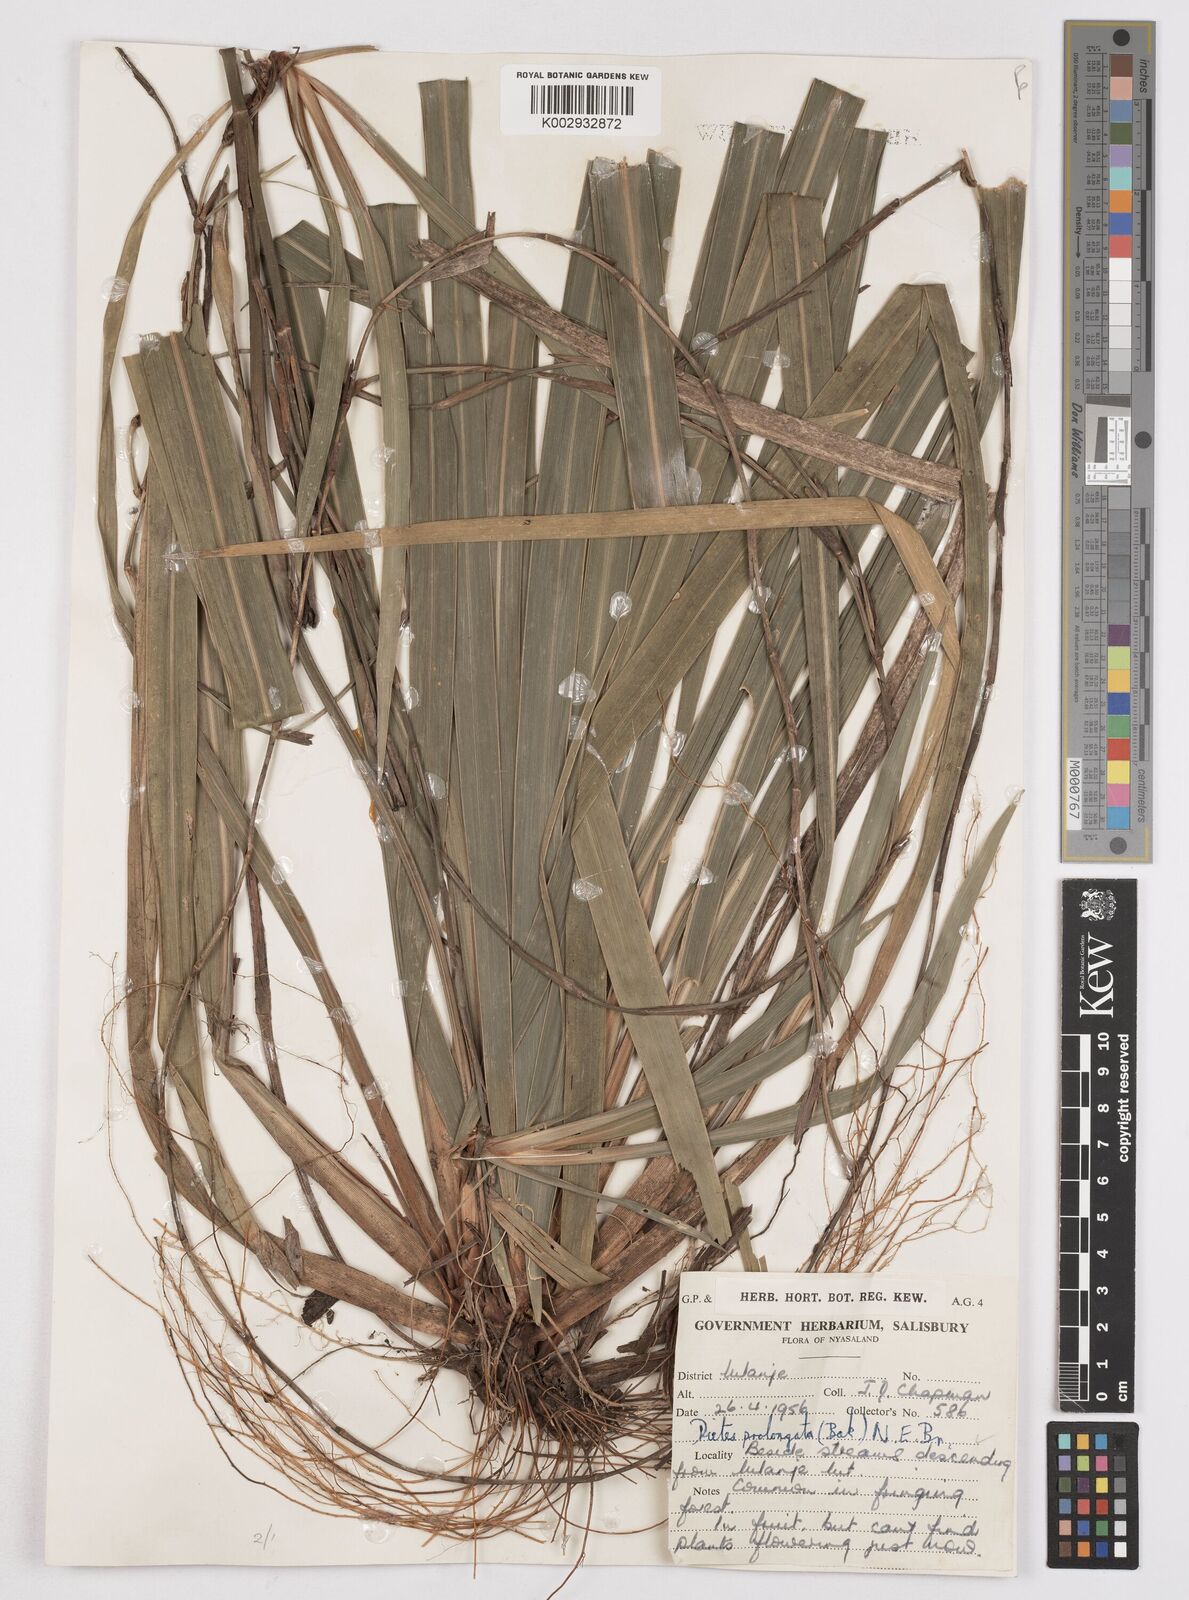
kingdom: Plantae
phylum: Tracheophyta
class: Liliopsida
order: Asparagales
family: Iridaceae
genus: Dietes
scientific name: Dietes iridioides
